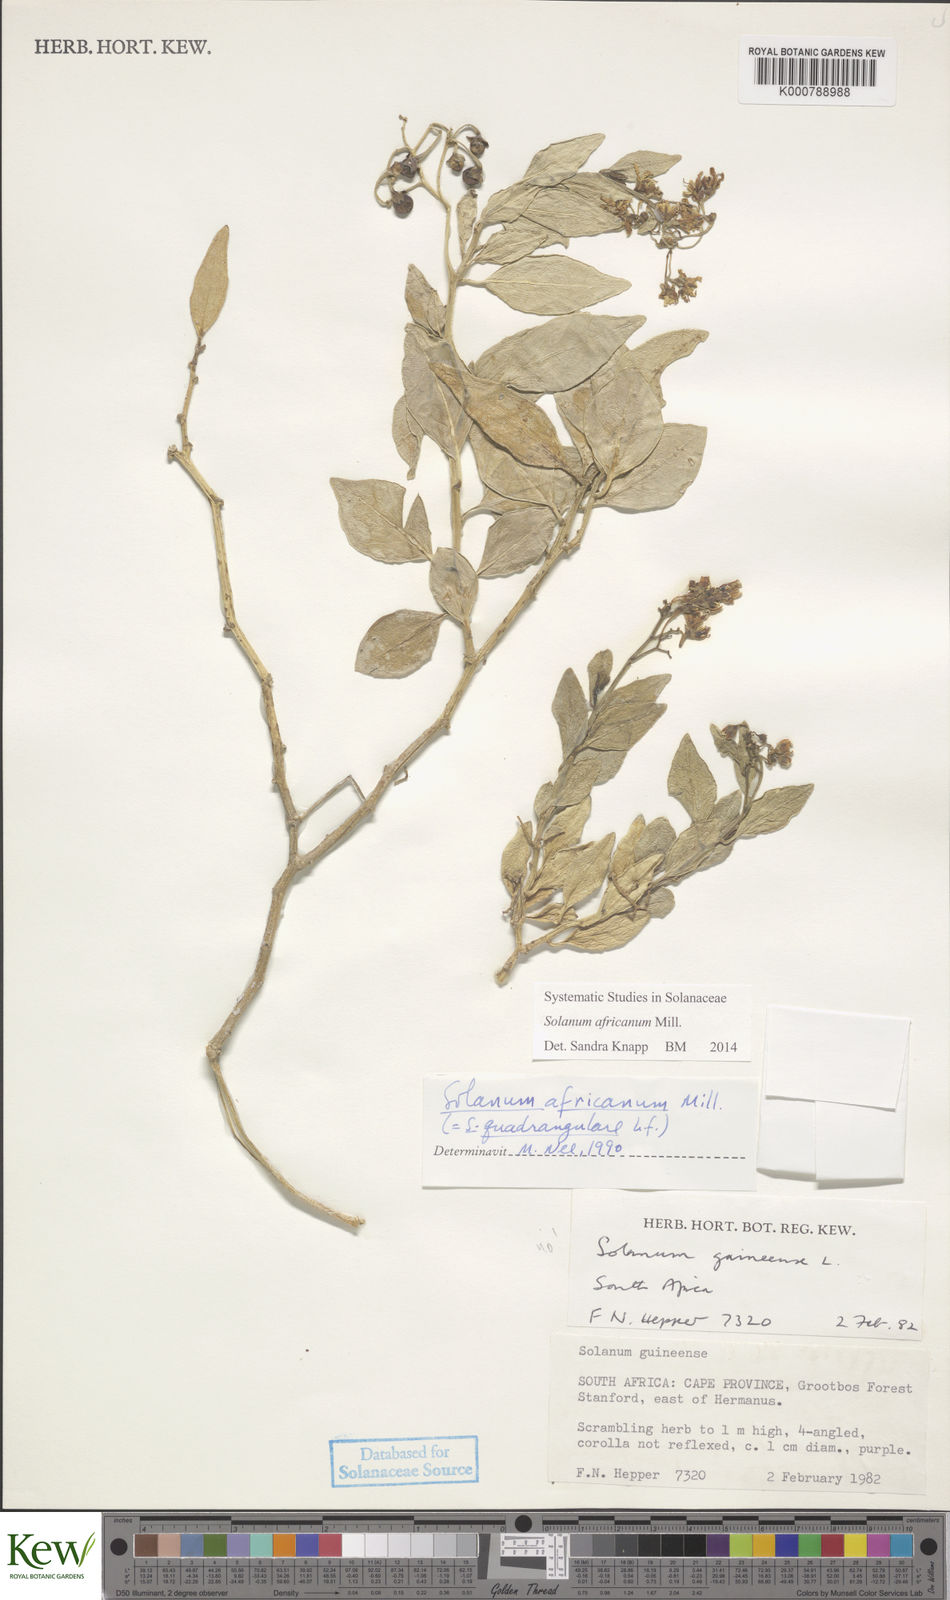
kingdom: Plantae
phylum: Tracheophyta
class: Magnoliopsida
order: Solanales
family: Solanaceae
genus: Solanum
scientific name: Solanum africanum
